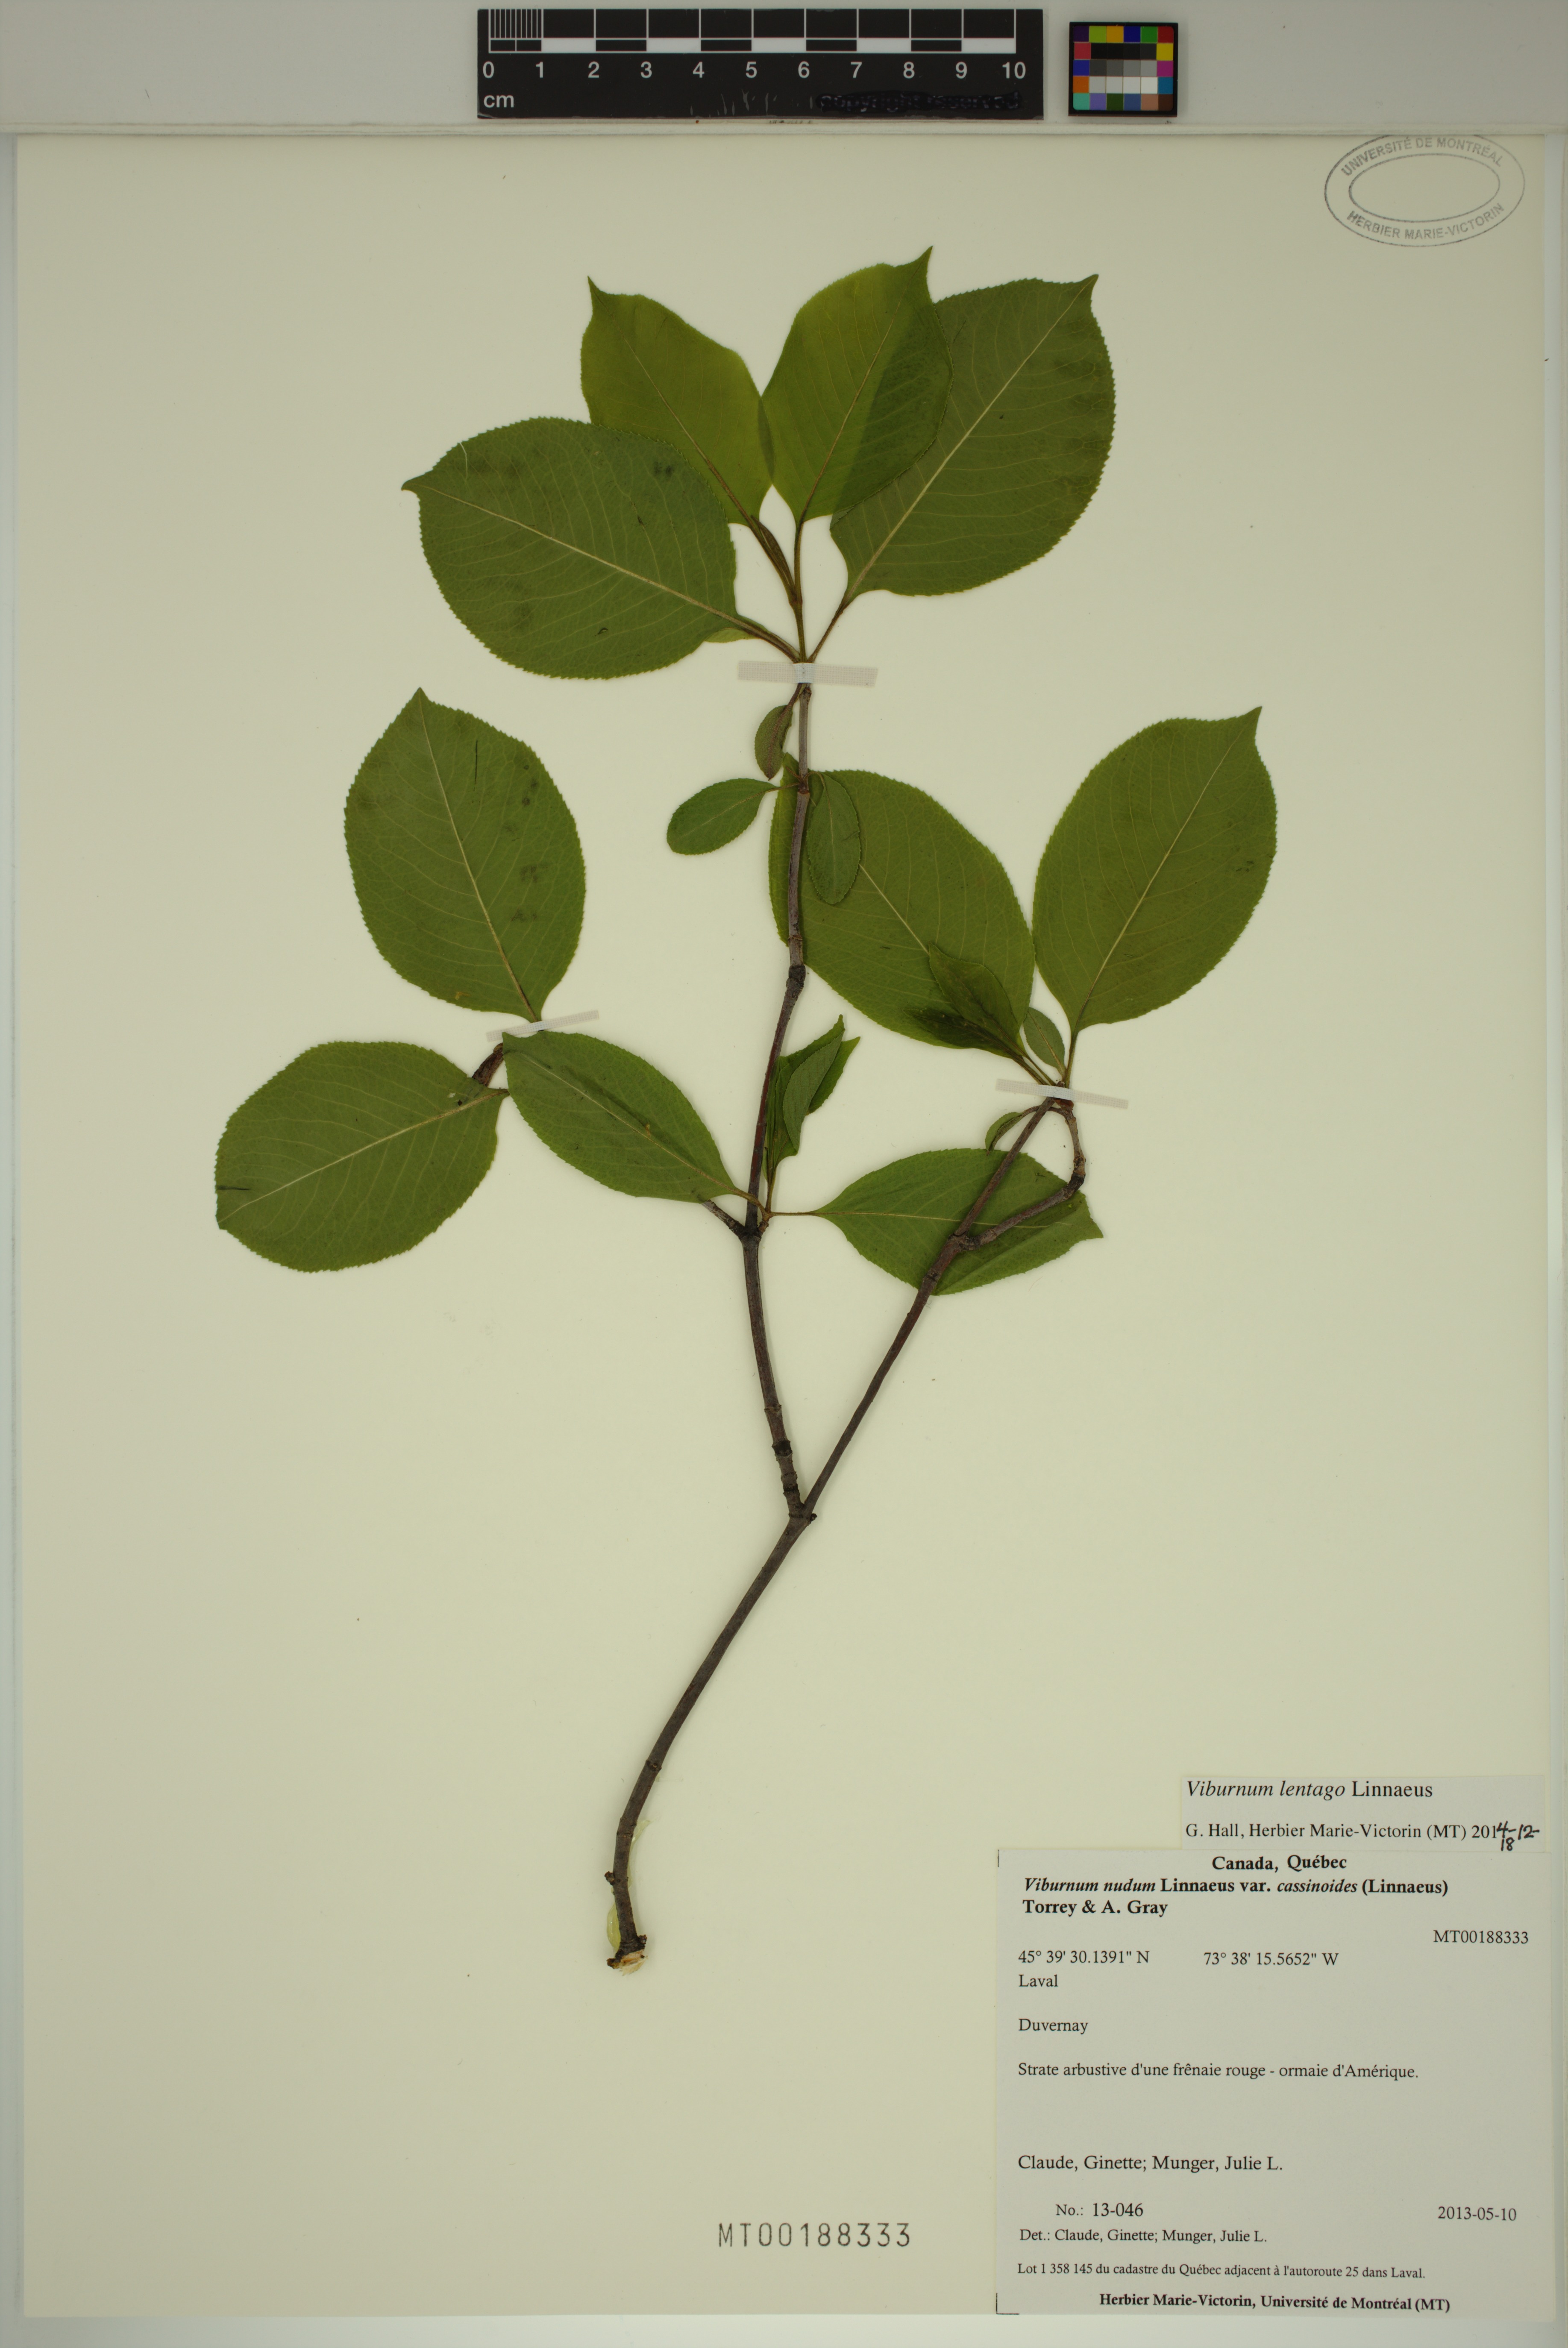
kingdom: Plantae
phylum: Tracheophyta
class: Magnoliopsida
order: Dipsacales
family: Viburnaceae
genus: Viburnum
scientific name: Viburnum lentago
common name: Black haw
